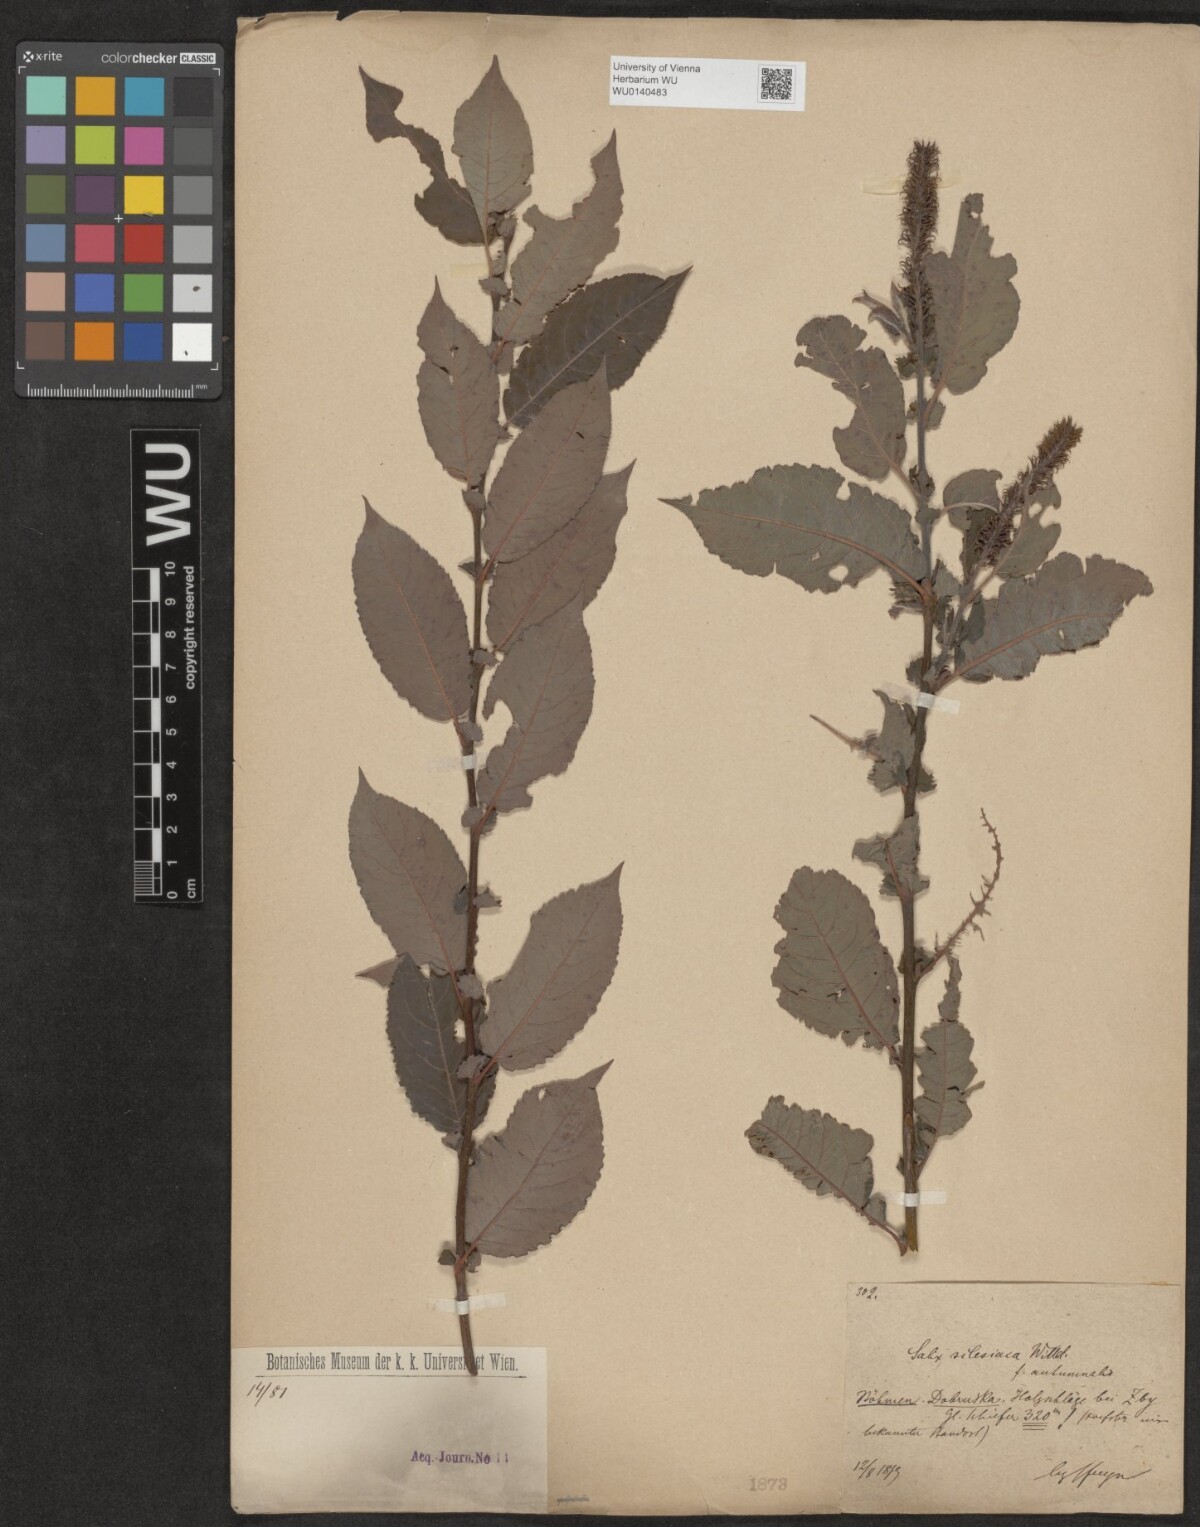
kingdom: Plantae
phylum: Tracheophyta
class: Magnoliopsida
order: Malpighiales
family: Salicaceae
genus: Salix
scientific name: Salix silesiaca
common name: Silesian willow
